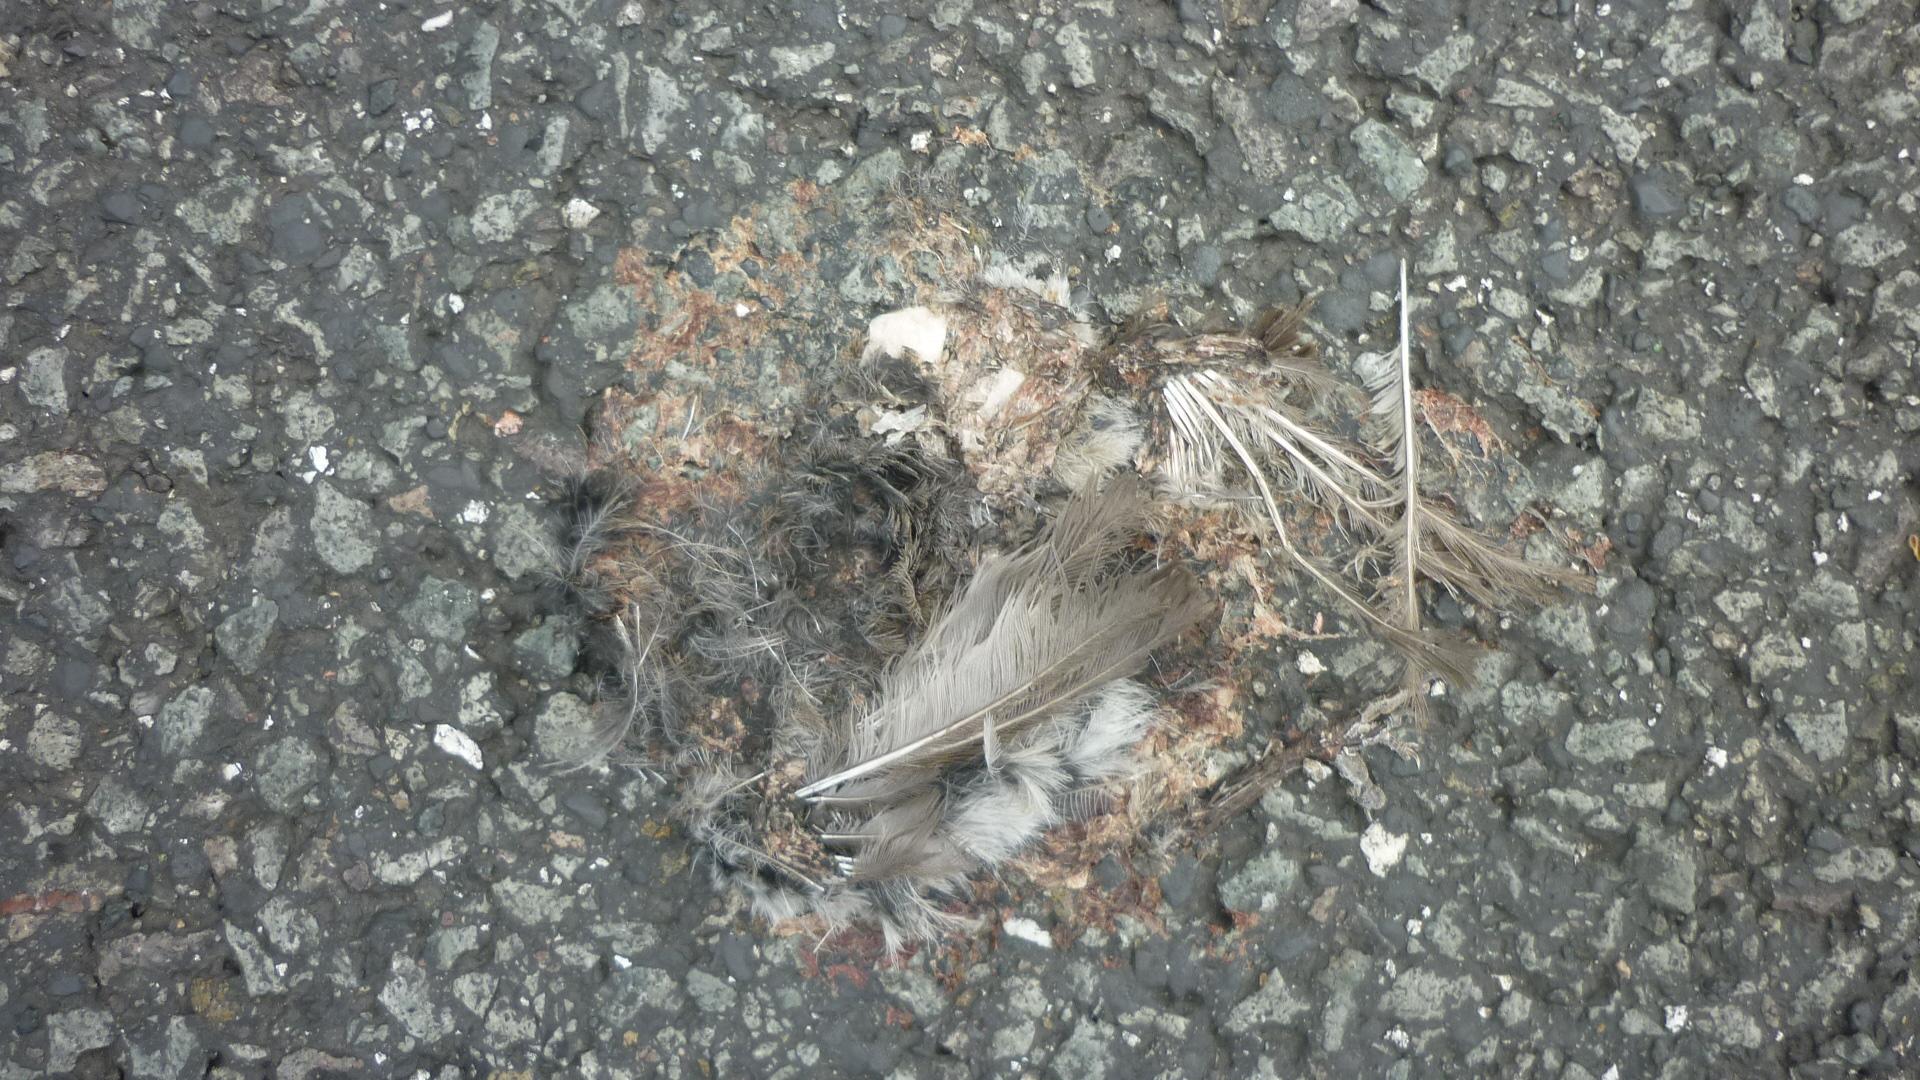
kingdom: Animalia
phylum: Chordata
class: Aves
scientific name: Aves
